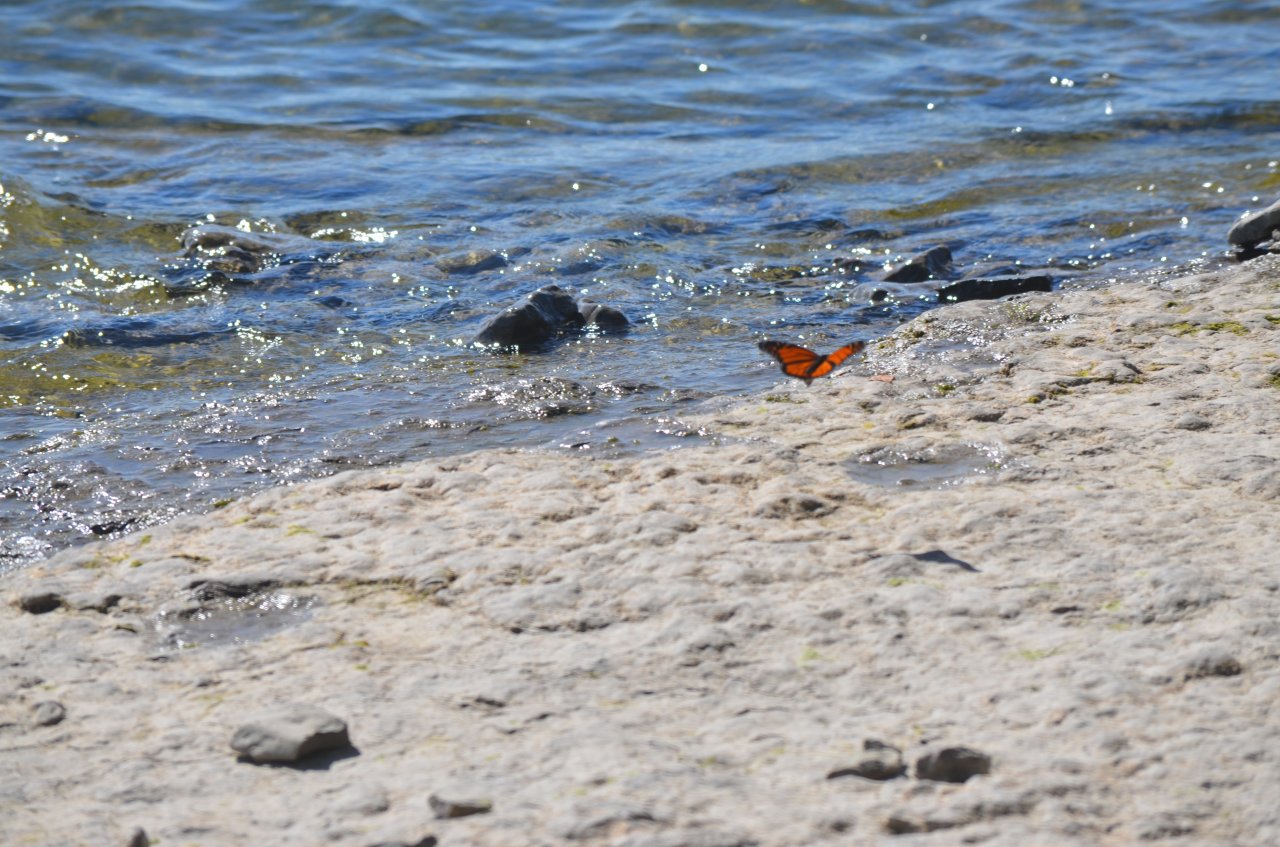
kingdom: Animalia
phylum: Arthropoda
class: Insecta
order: Lepidoptera
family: Nymphalidae
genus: Danaus
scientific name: Danaus plexippus
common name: Monarch
